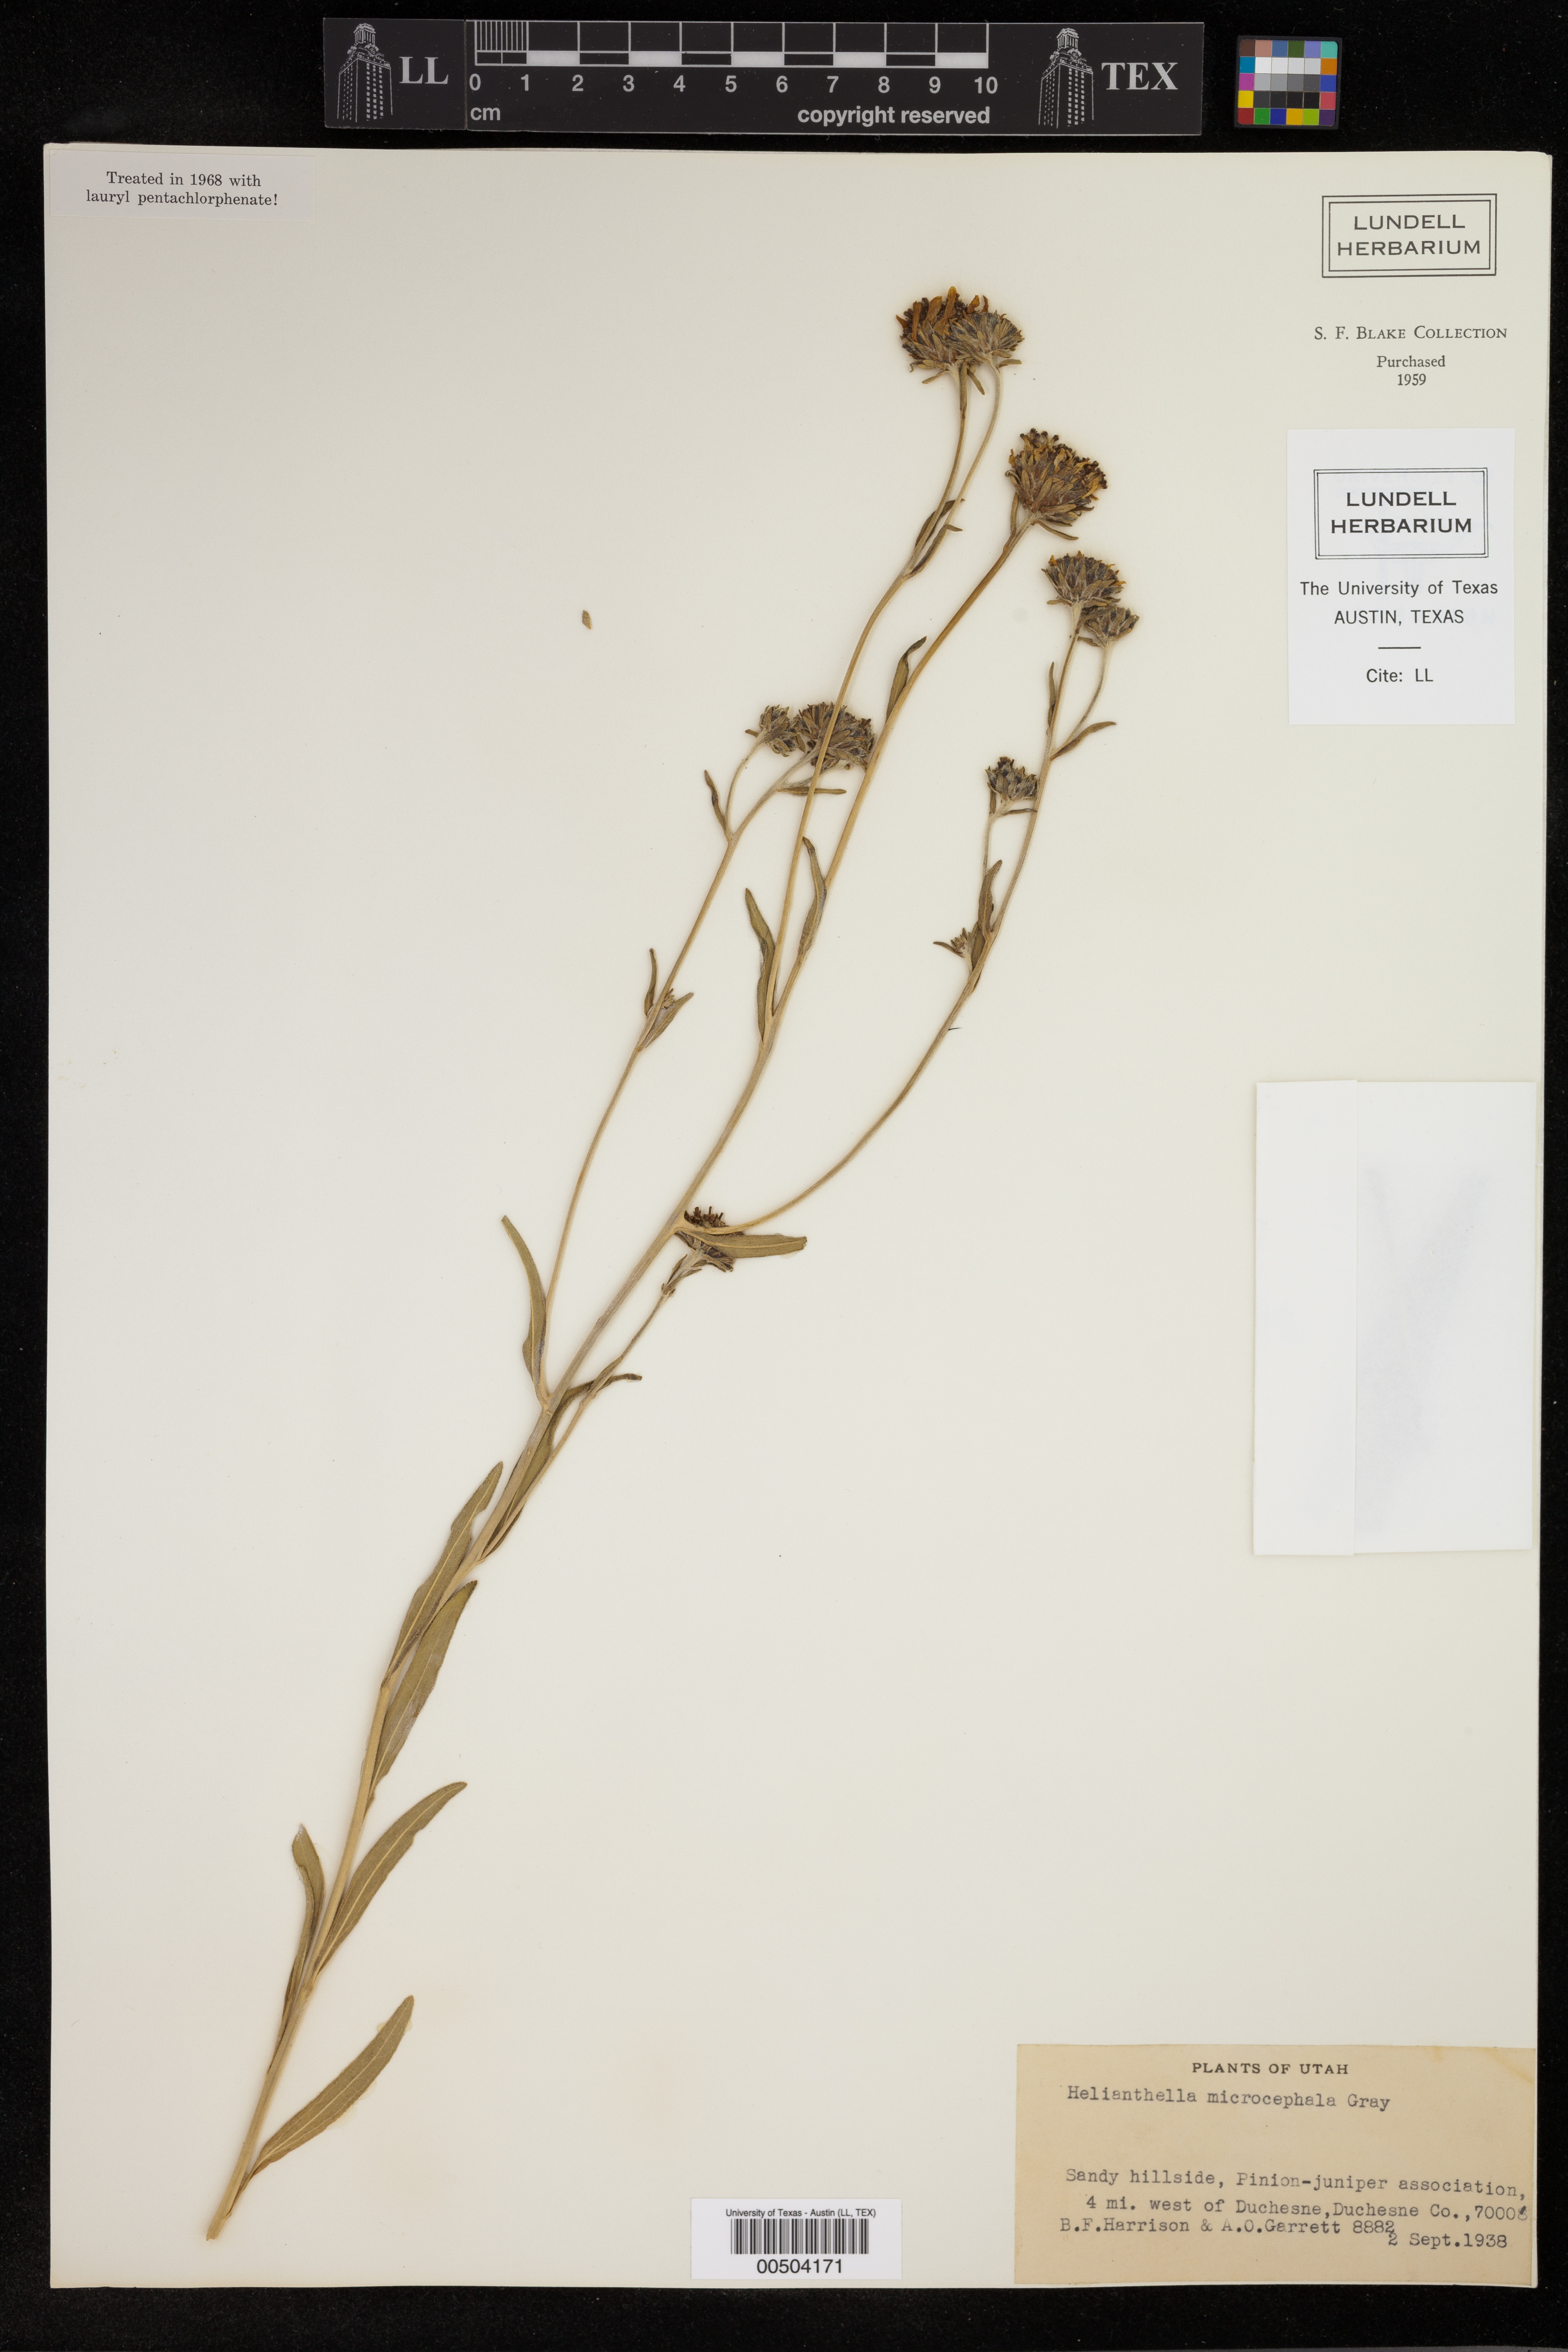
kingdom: Plantae
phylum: Tracheophyta
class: Magnoliopsida
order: Asterales
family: Asteraceae
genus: Helianthella
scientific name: Helianthella microcephala
